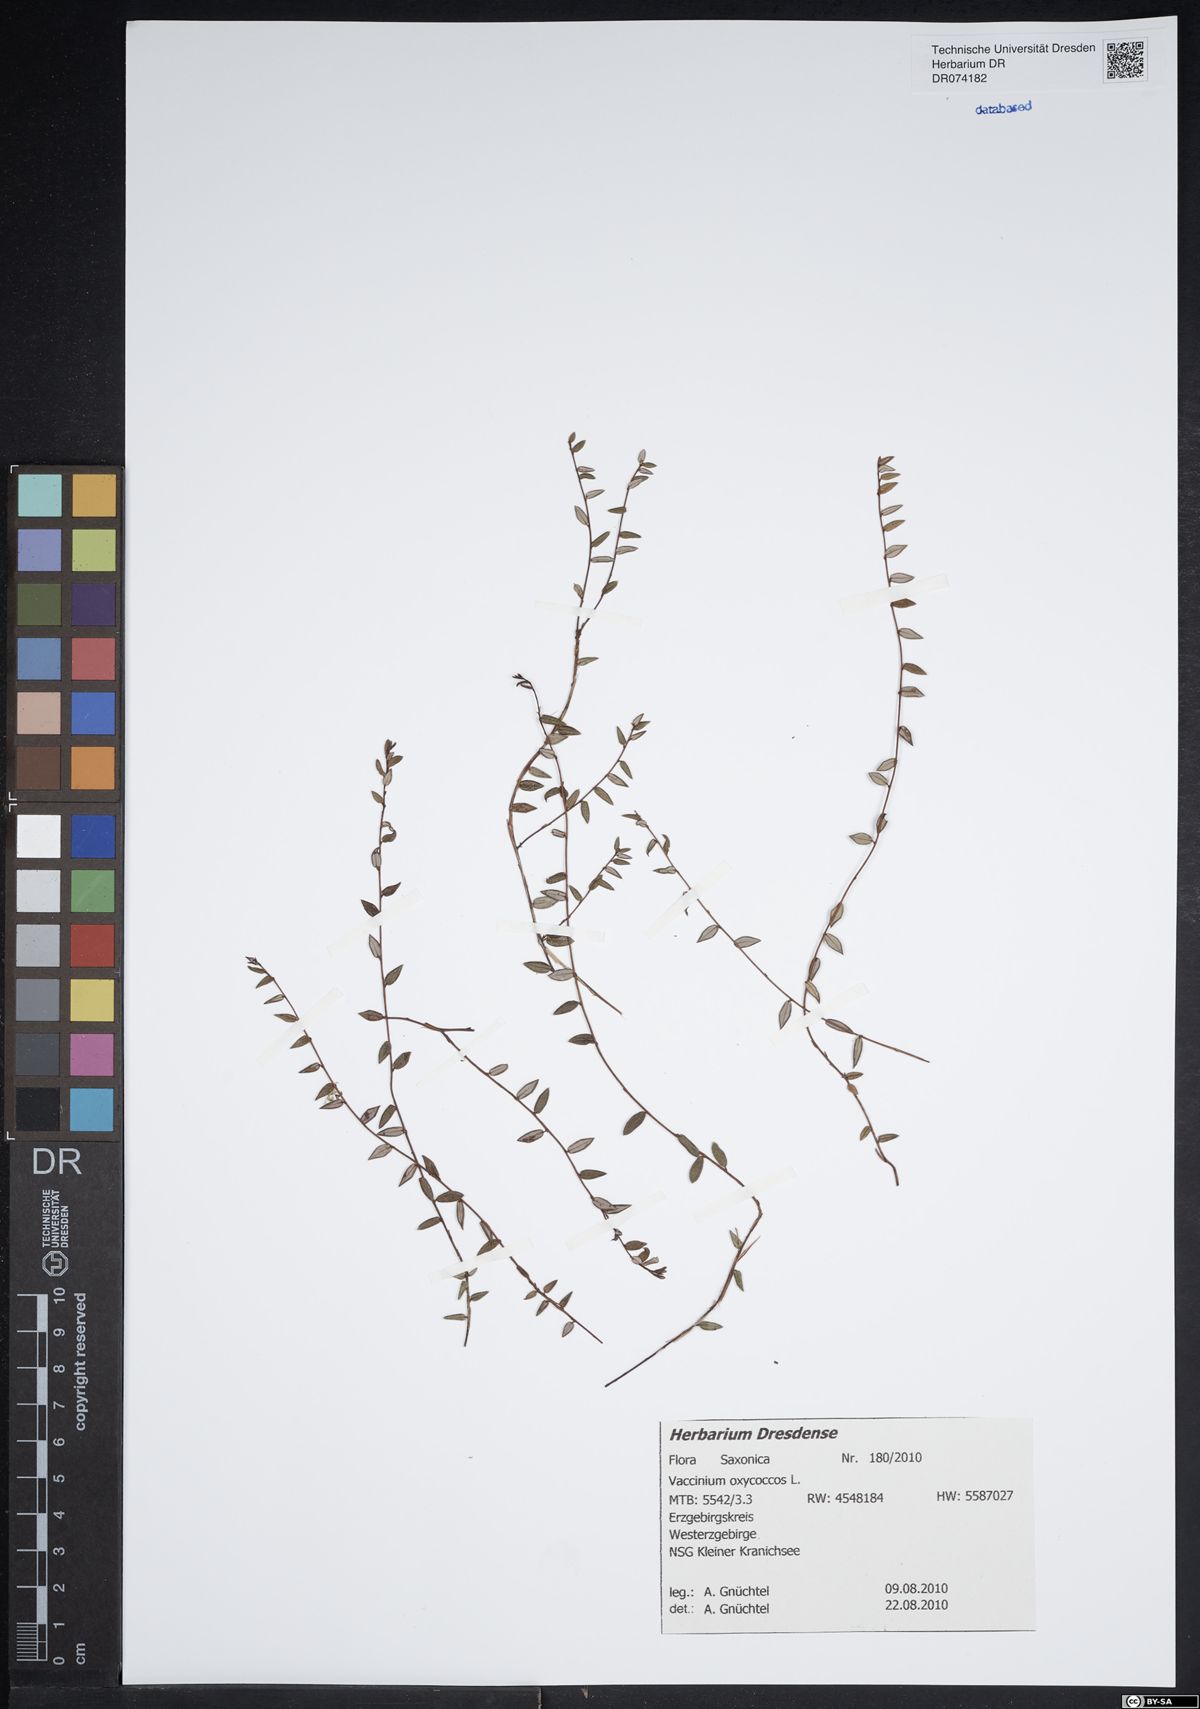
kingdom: Plantae
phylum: Tracheophyta
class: Magnoliopsida
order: Ericales
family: Ericaceae
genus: Vaccinium
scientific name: Vaccinium oxycoccos
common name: Cranberry
